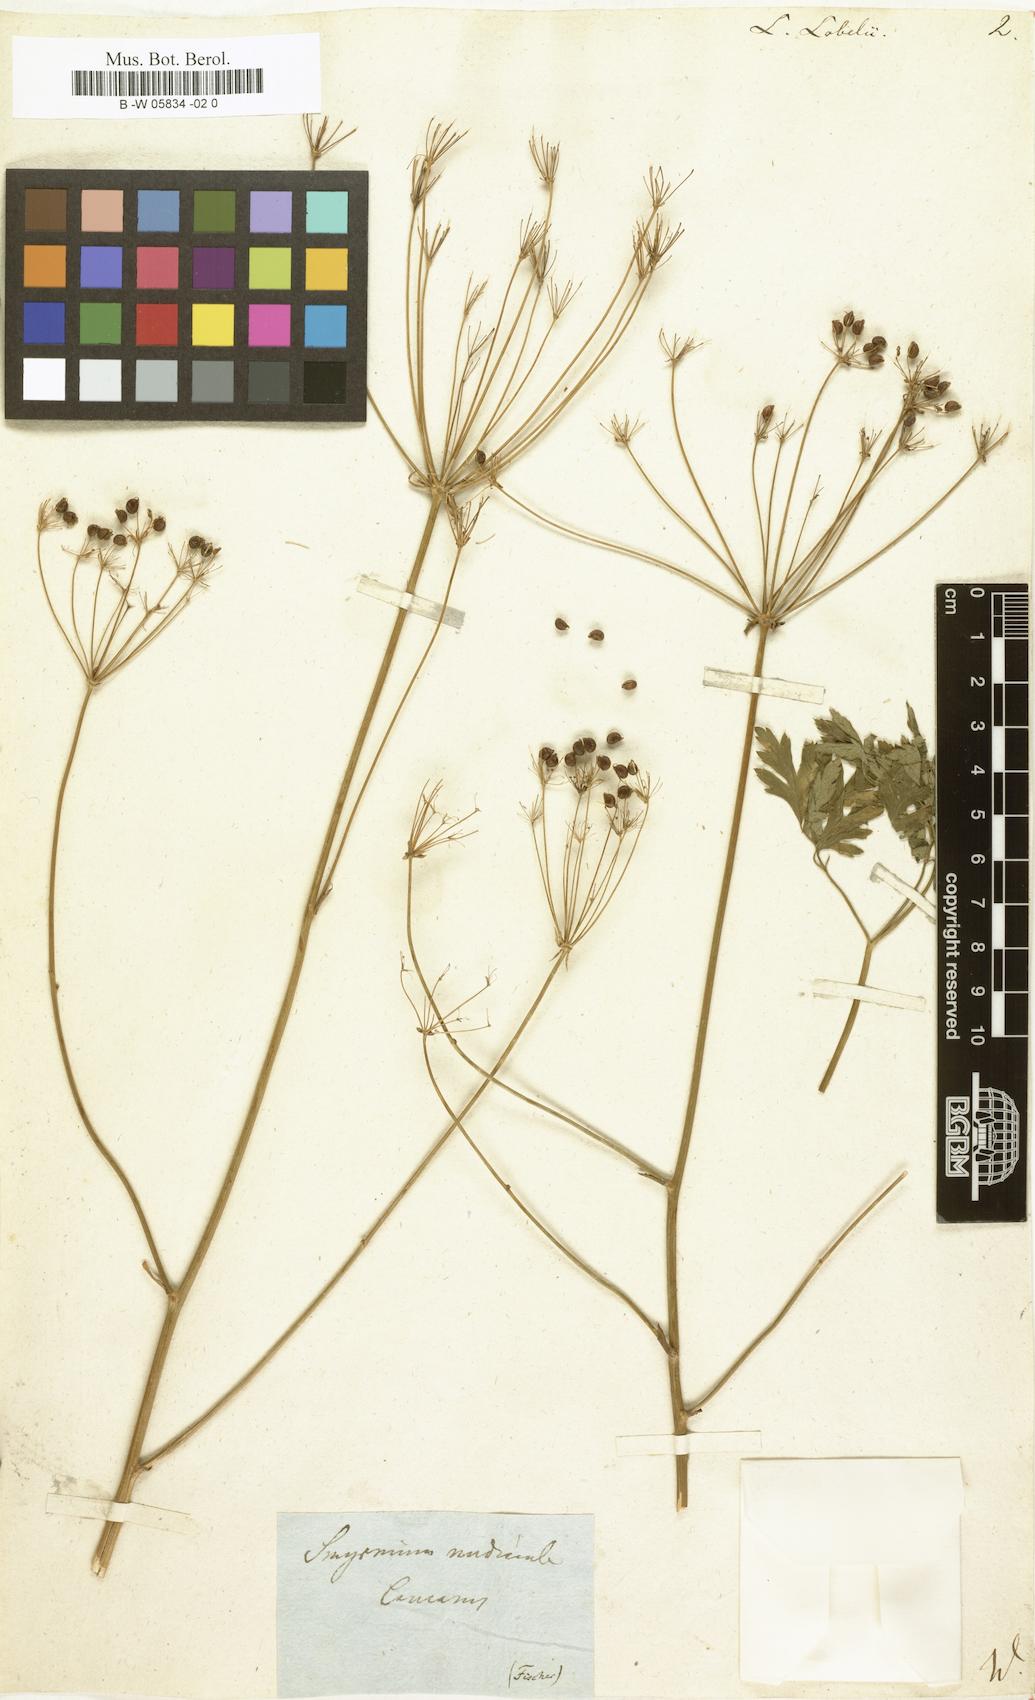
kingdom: Plantae
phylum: Tracheophyta
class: Magnoliopsida
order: Apiales
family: Apiaceae
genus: Ligusticum
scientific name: Ligusticum lobelii
